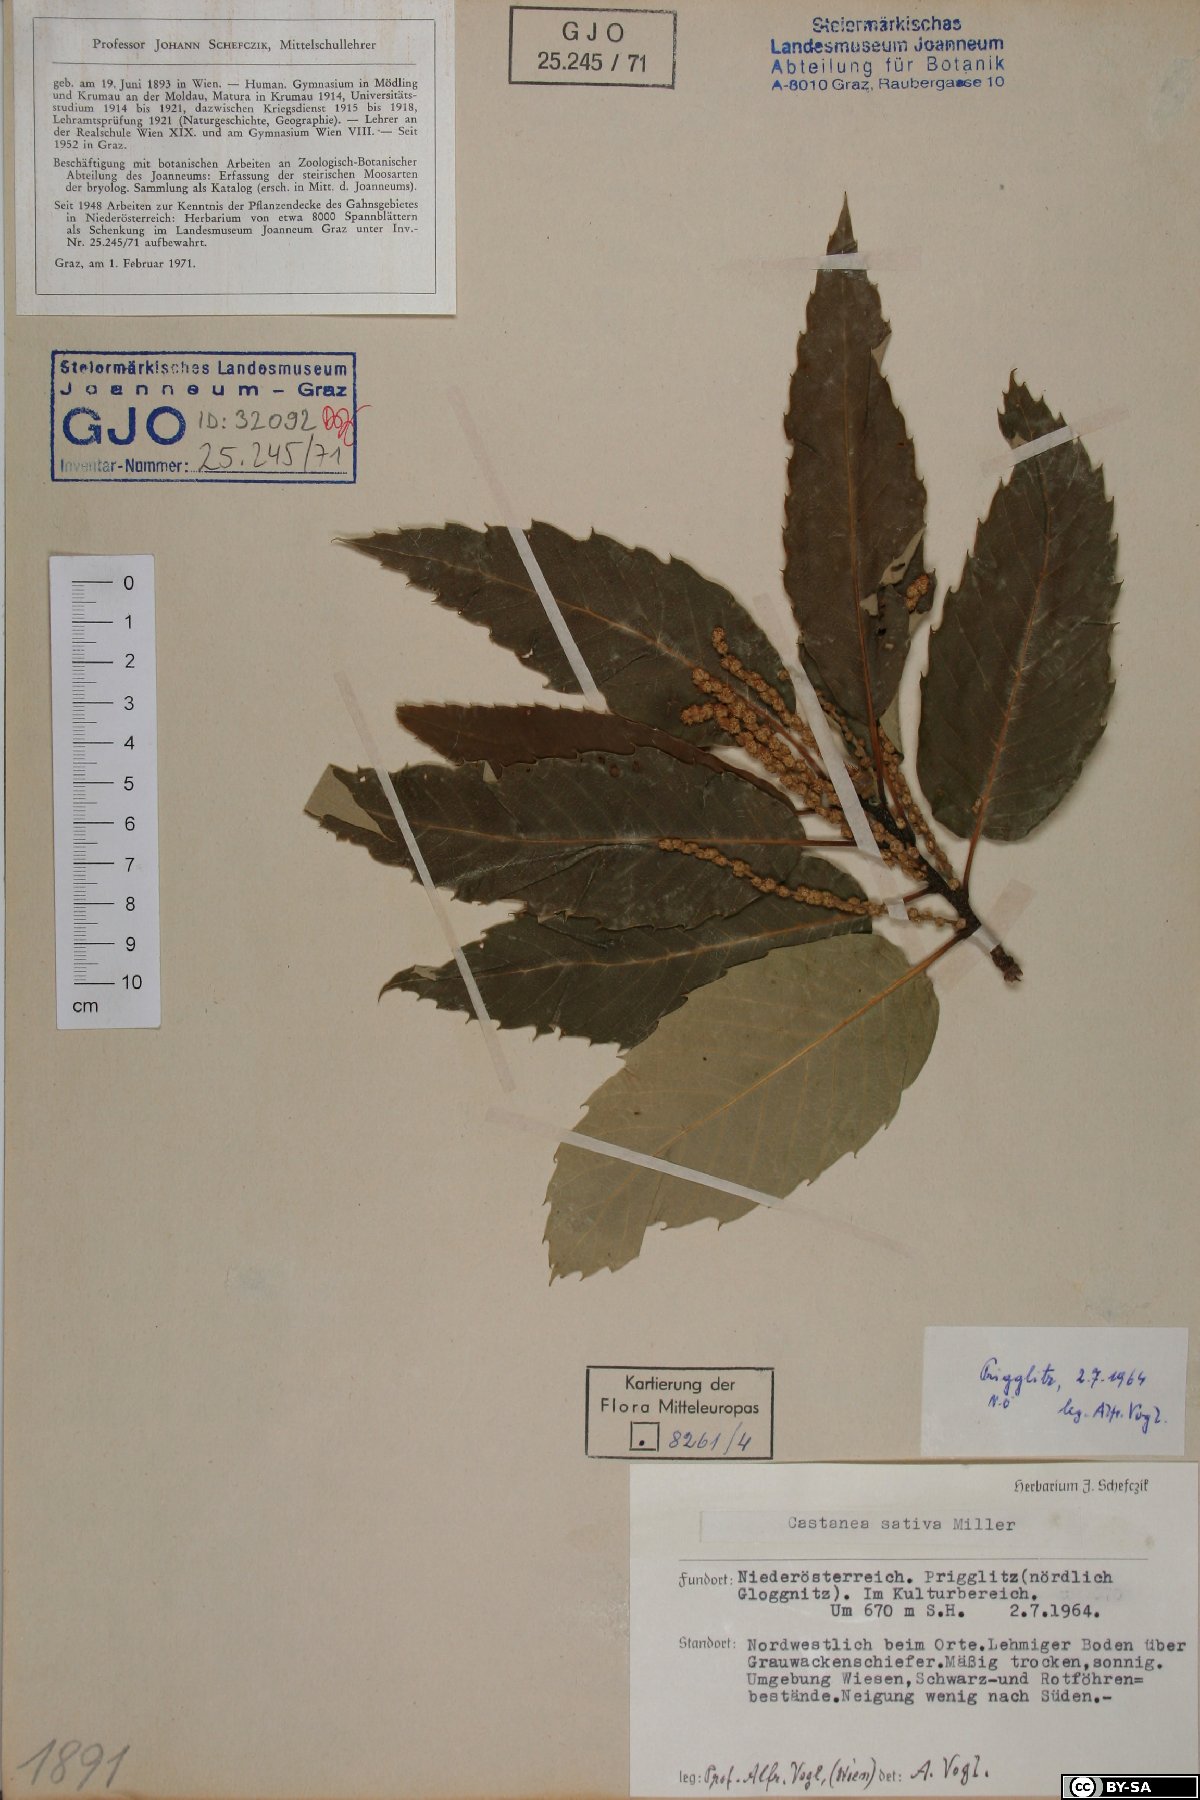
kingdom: Plantae
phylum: Tracheophyta
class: Magnoliopsida
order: Fagales
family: Fagaceae
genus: Castanea
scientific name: Castanea sativa
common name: Sweet chestnut
